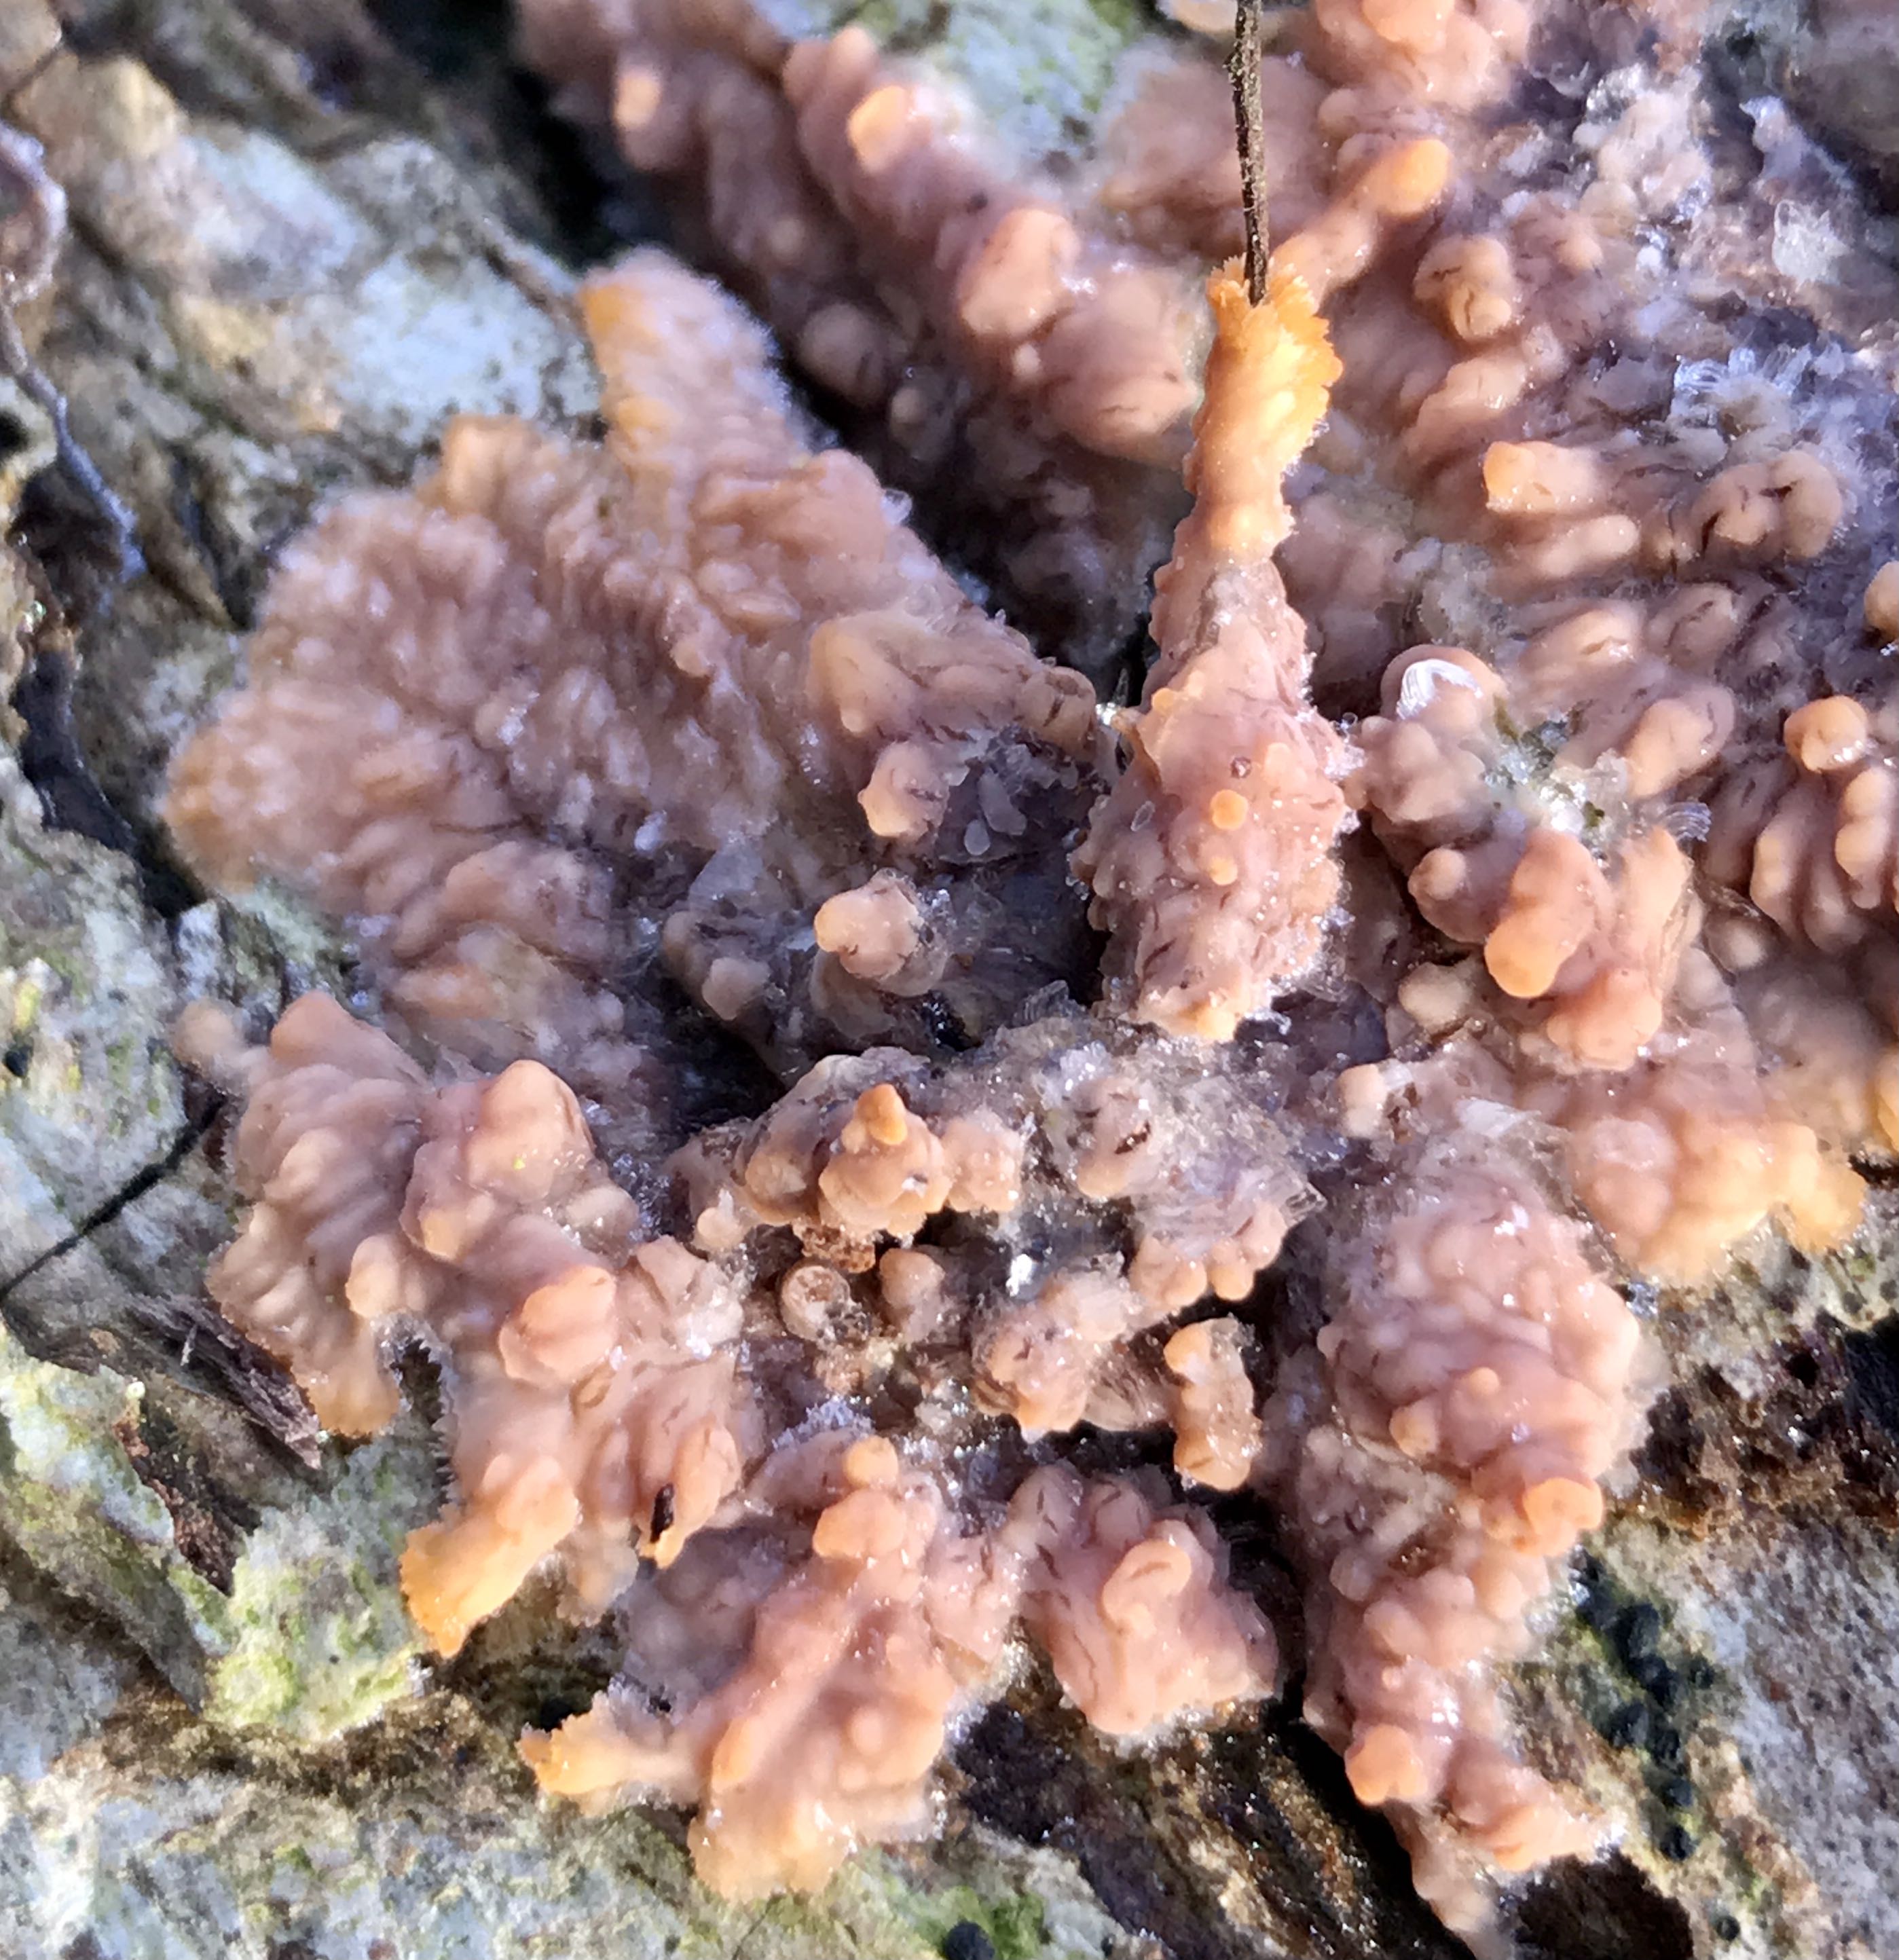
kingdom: Fungi
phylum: Basidiomycota
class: Agaricomycetes
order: Polyporales
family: Meruliaceae
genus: Phlebia
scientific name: Phlebia radiata
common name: stråle-åresvamp
